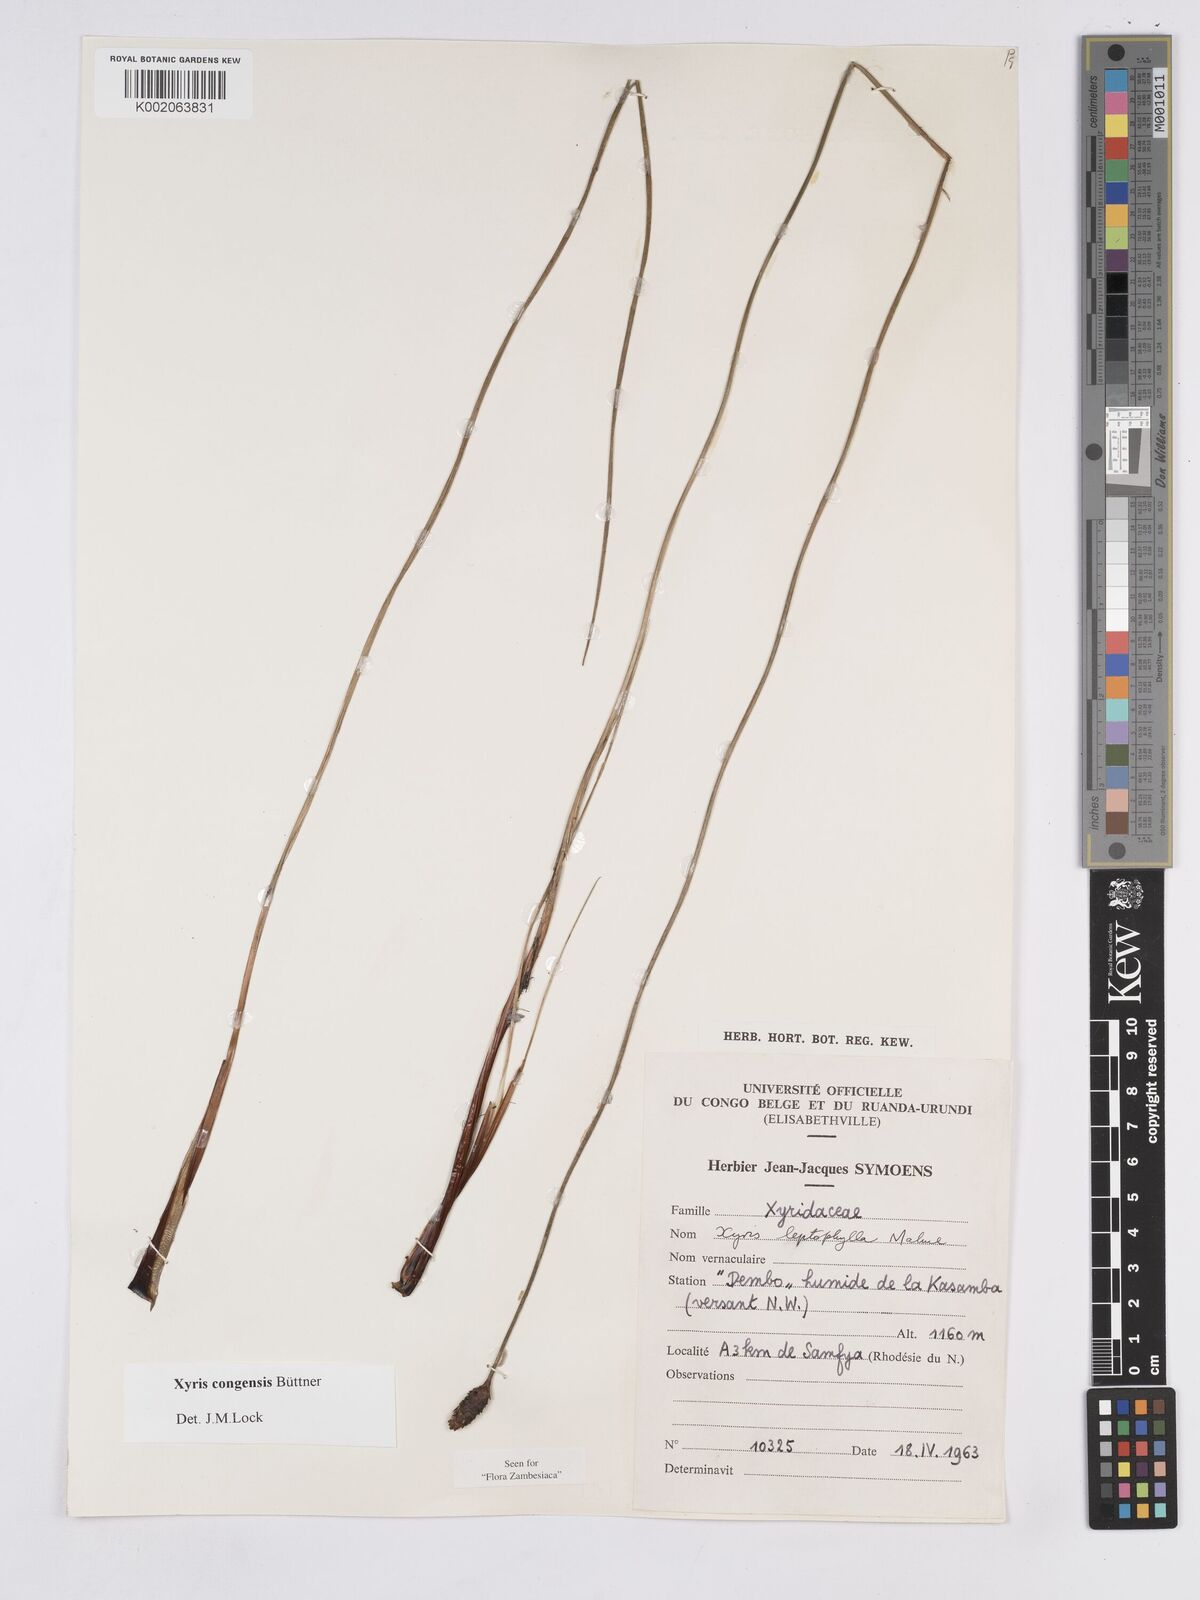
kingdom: Plantae
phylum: Tracheophyta
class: Liliopsida
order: Poales
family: Xyridaceae
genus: Xyris
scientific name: Xyris congensis
